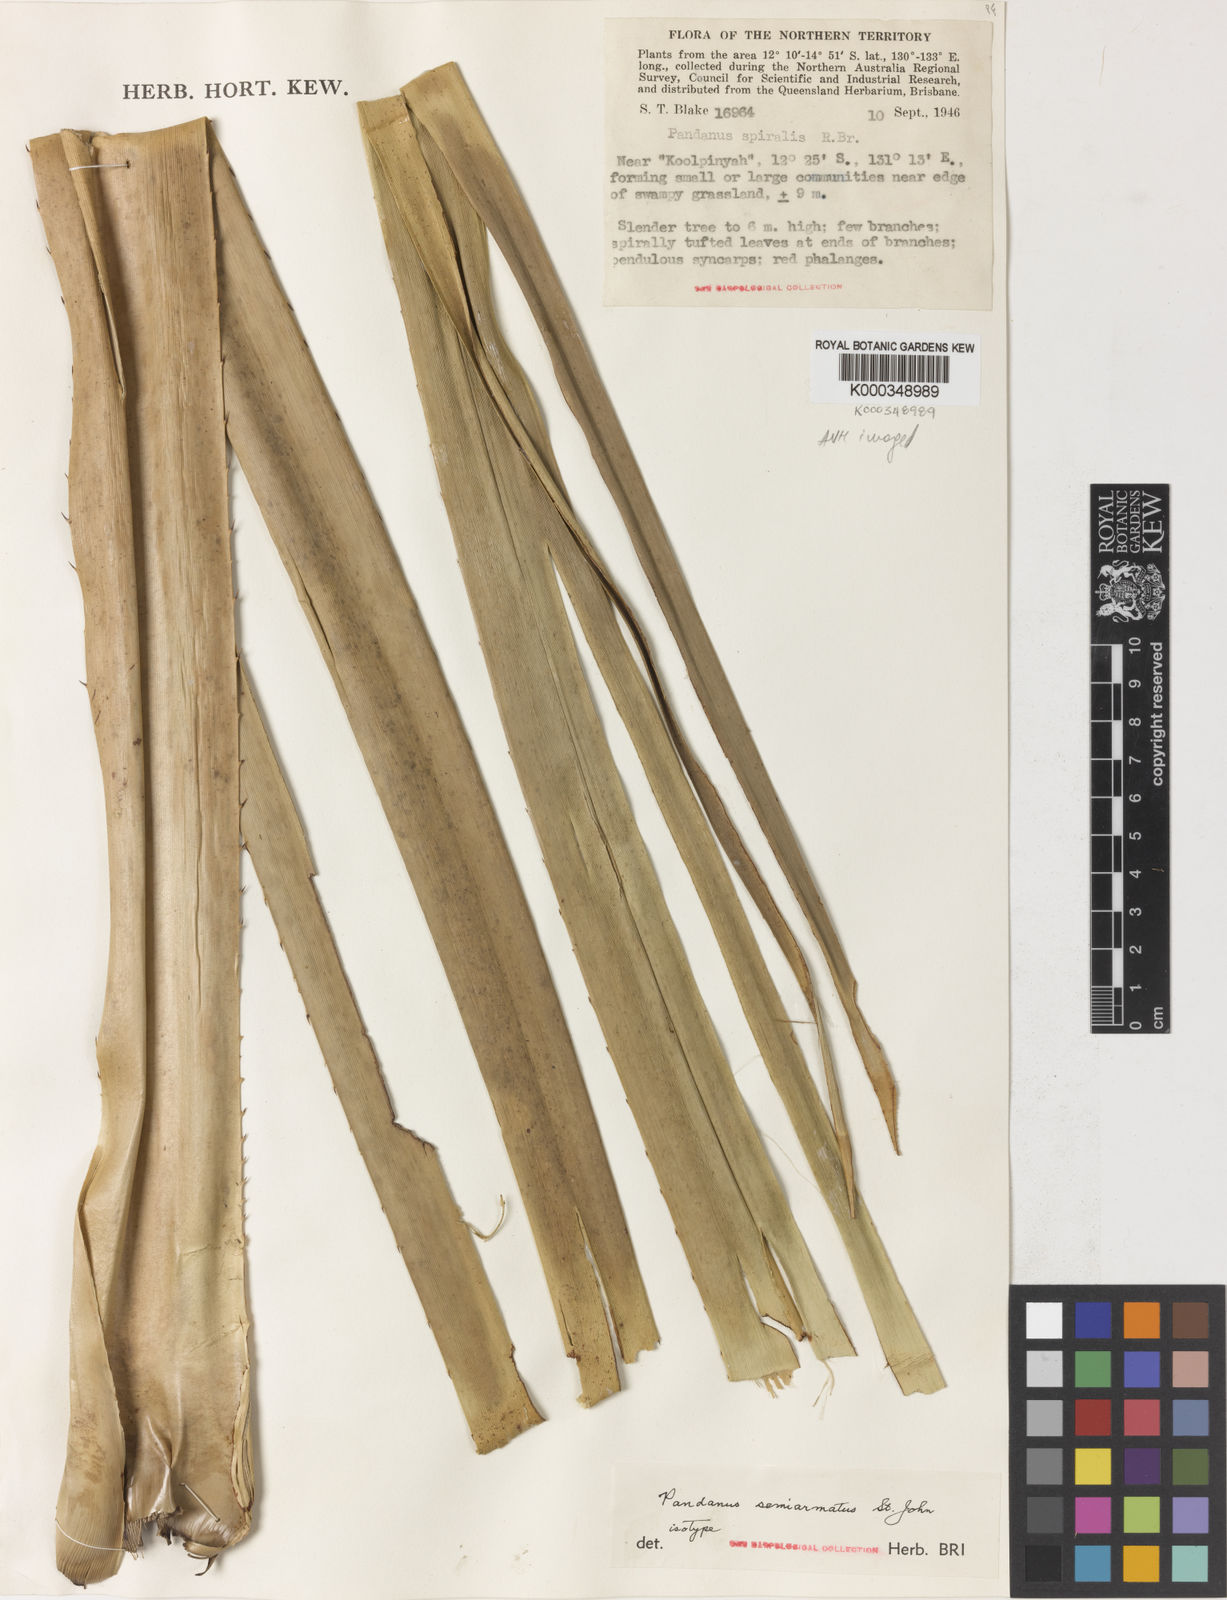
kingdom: Plantae
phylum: Tracheophyta
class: Liliopsida
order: Pandanales
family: Pandanaceae
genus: Pandanus
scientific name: Pandanus semiarmatus
